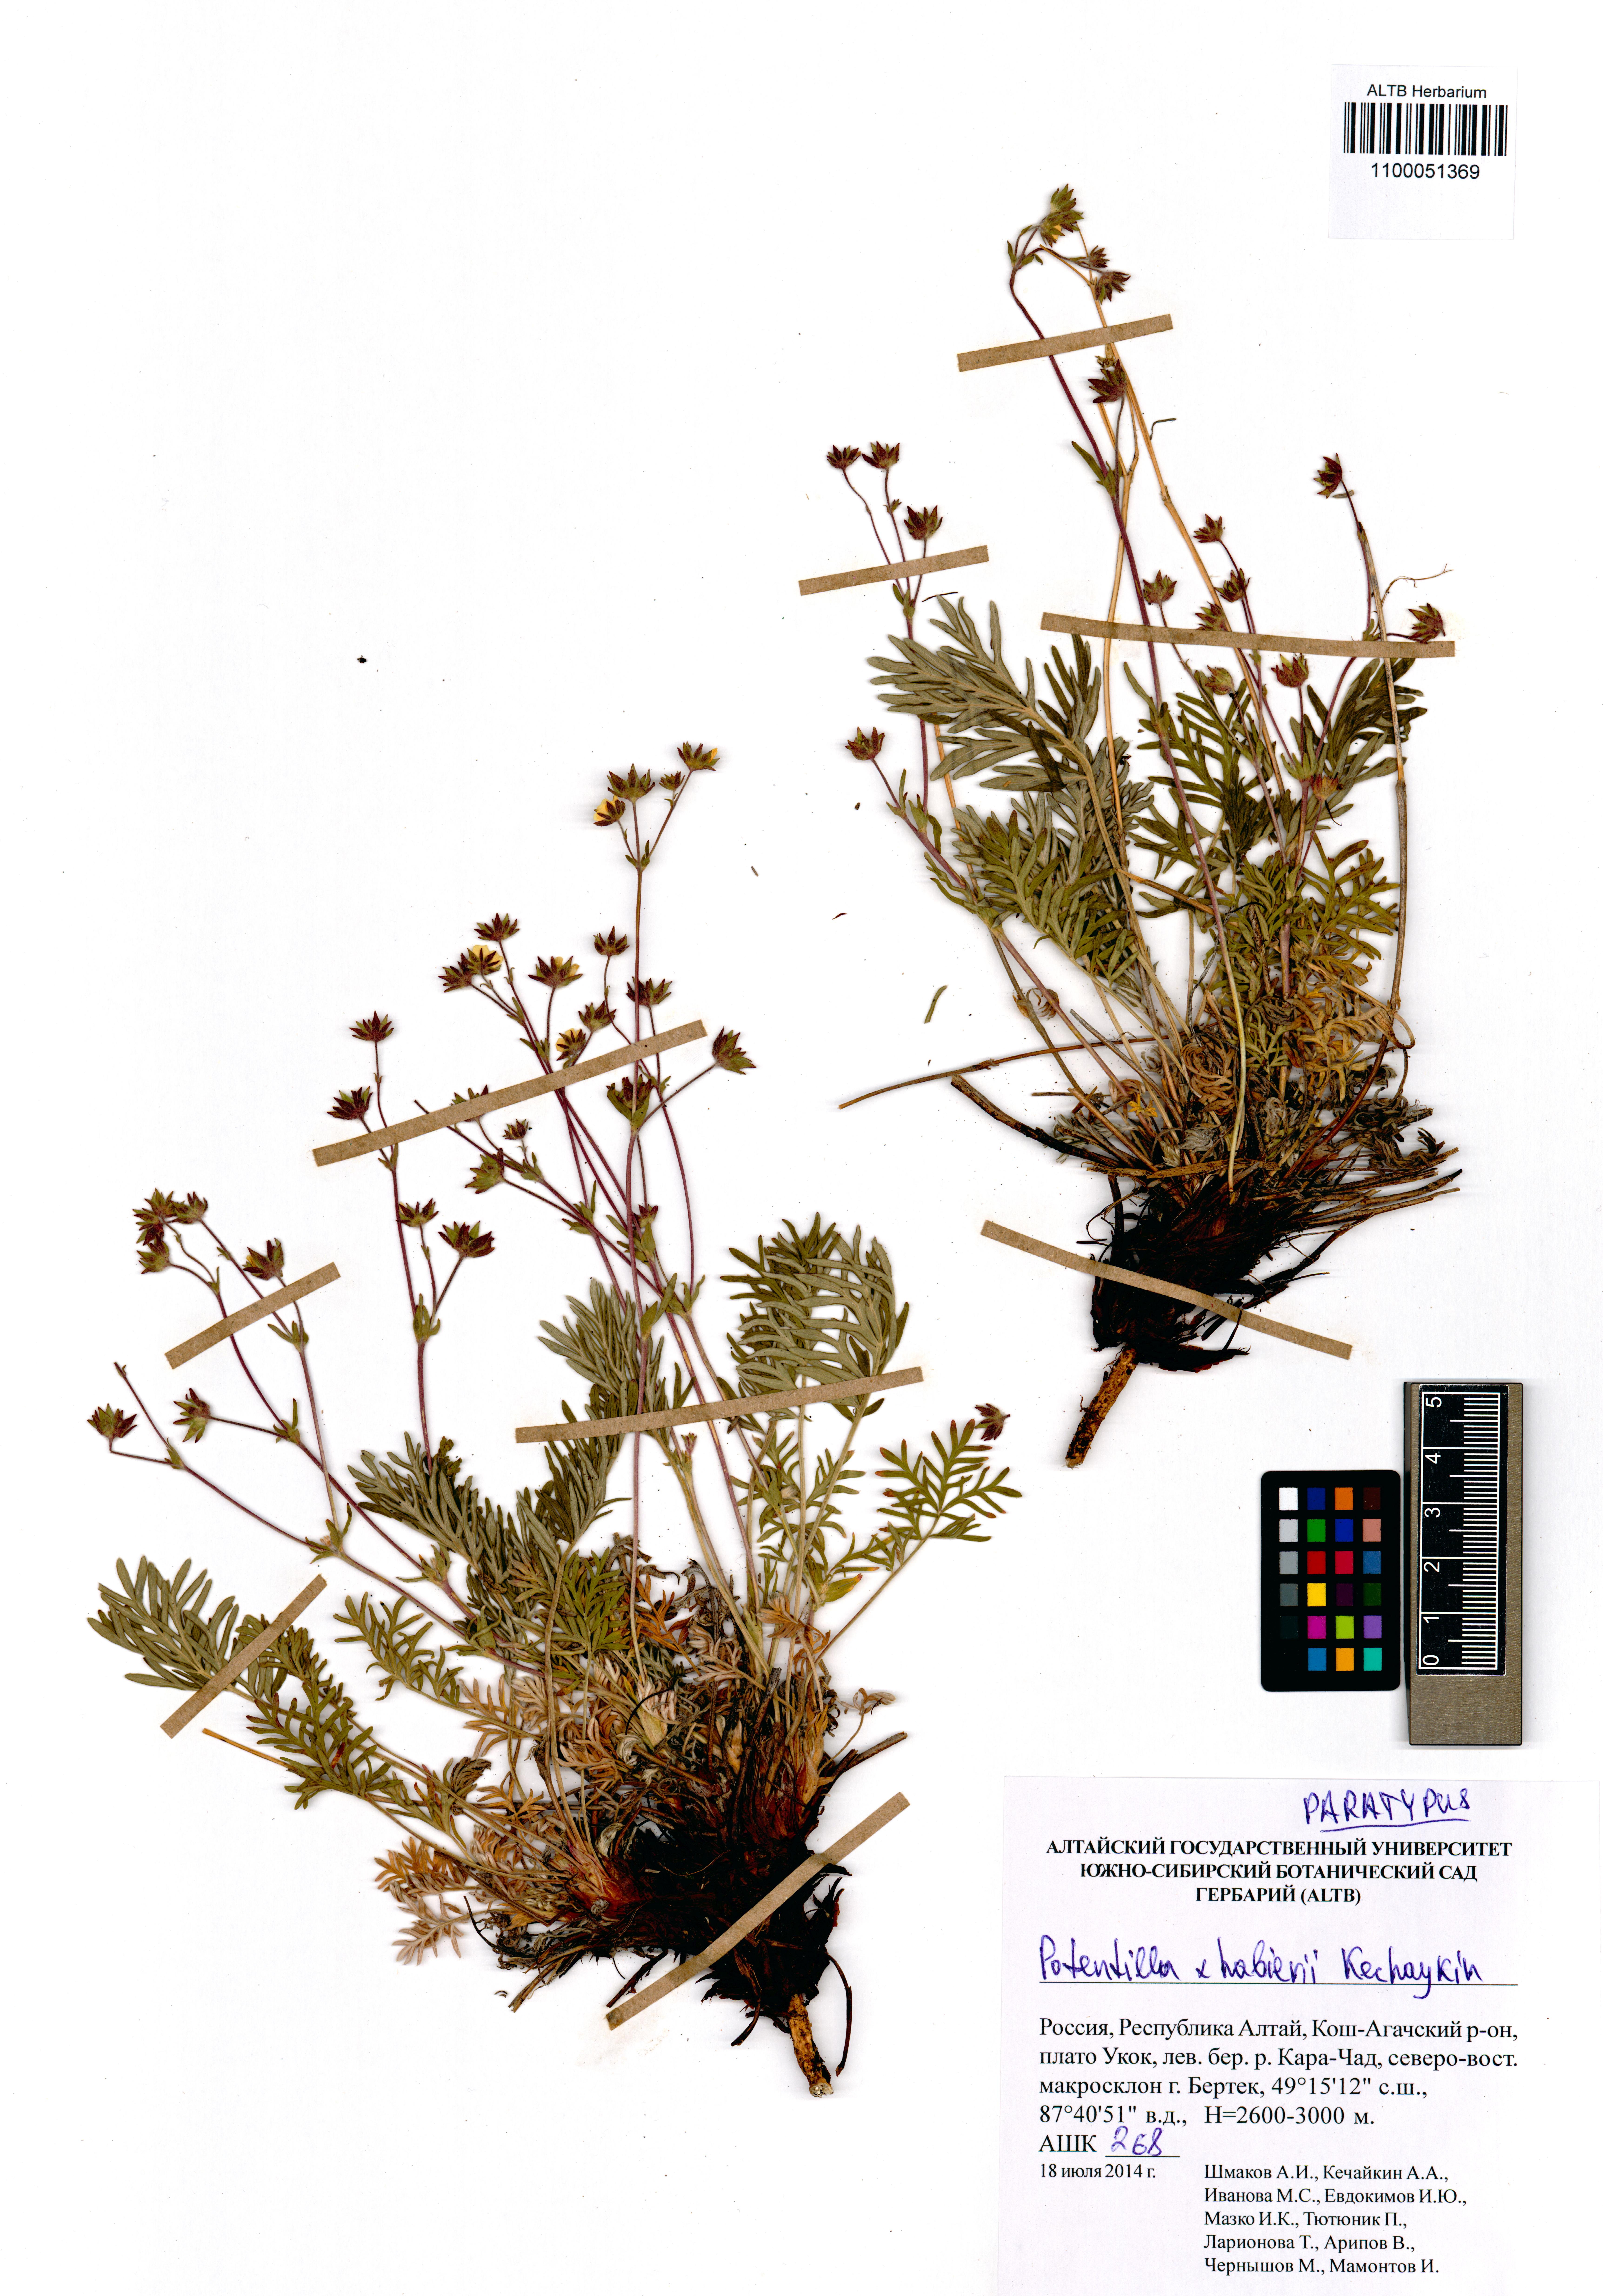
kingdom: Plantae
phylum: Tracheophyta
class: Magnoliopsida
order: Rosales
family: Rosaceae
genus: Potentilla
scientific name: Potentilla habievii
